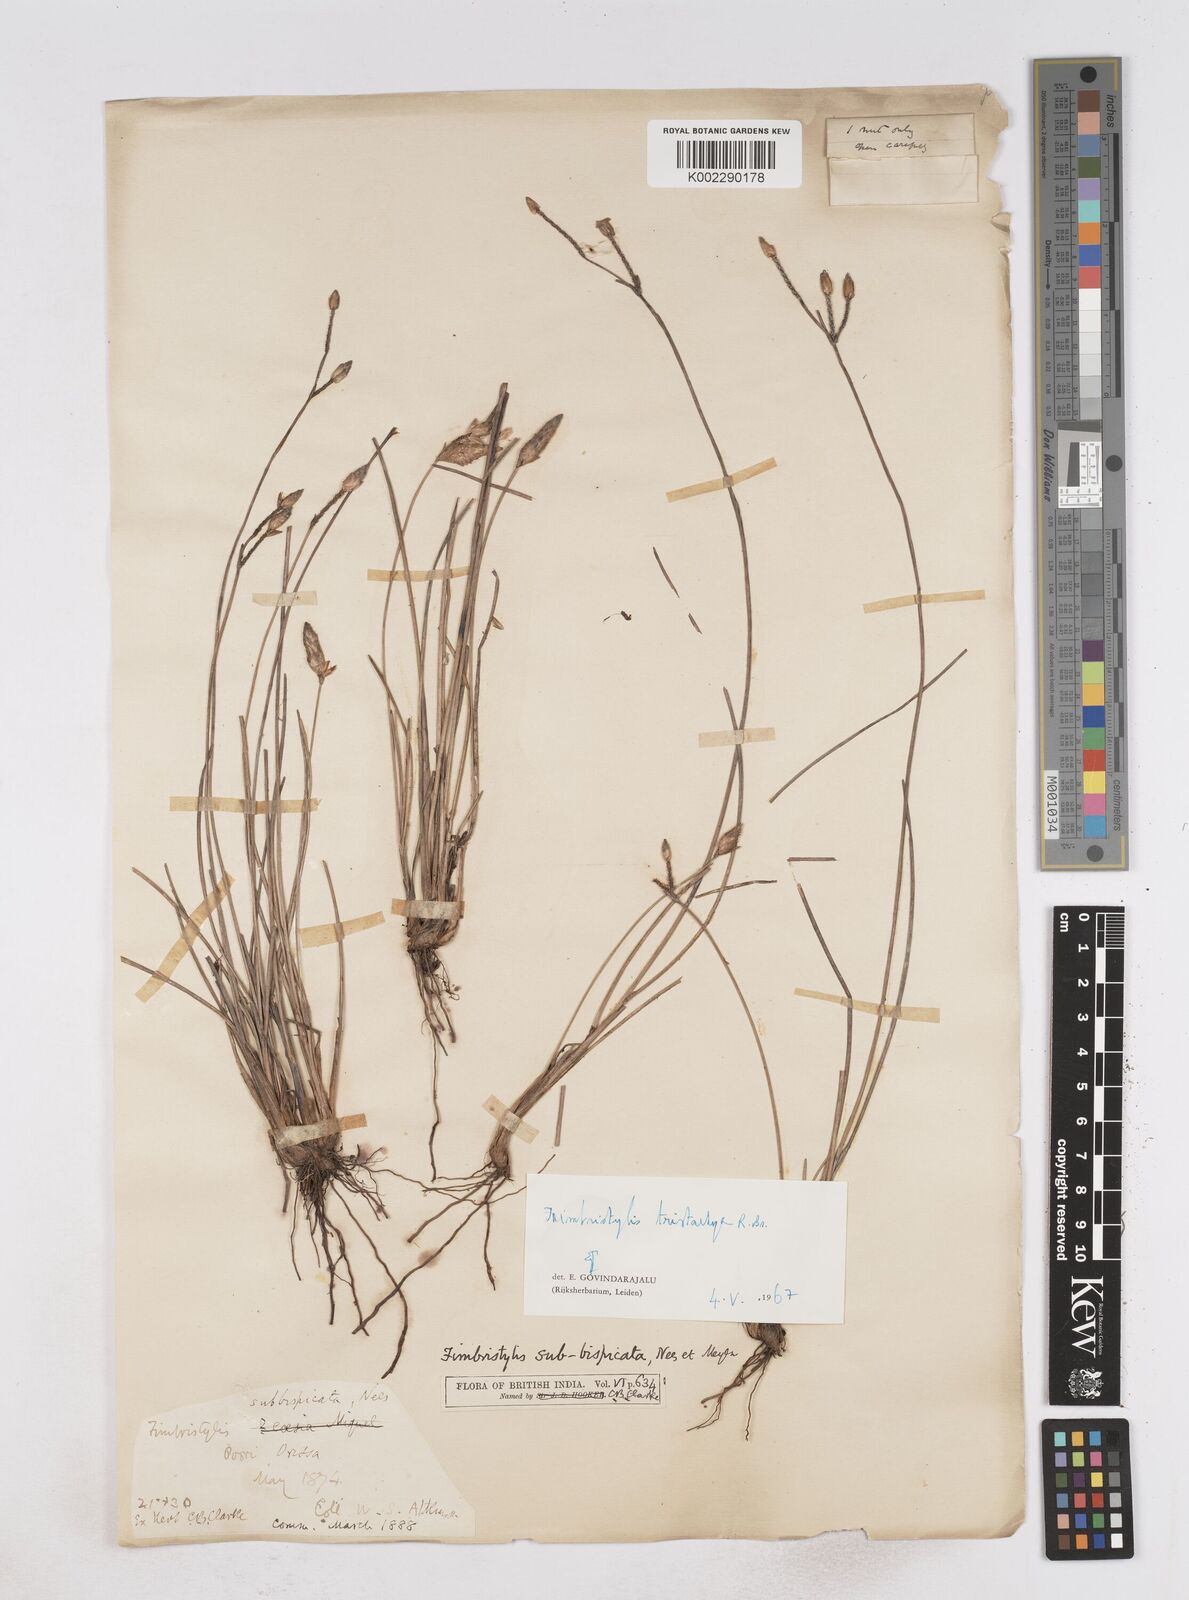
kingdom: Plantae
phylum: Tracheophyta
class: Liliopsida
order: Poales
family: Cyperaceae
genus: Fimbristylis
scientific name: Fimbristylis tristachya
